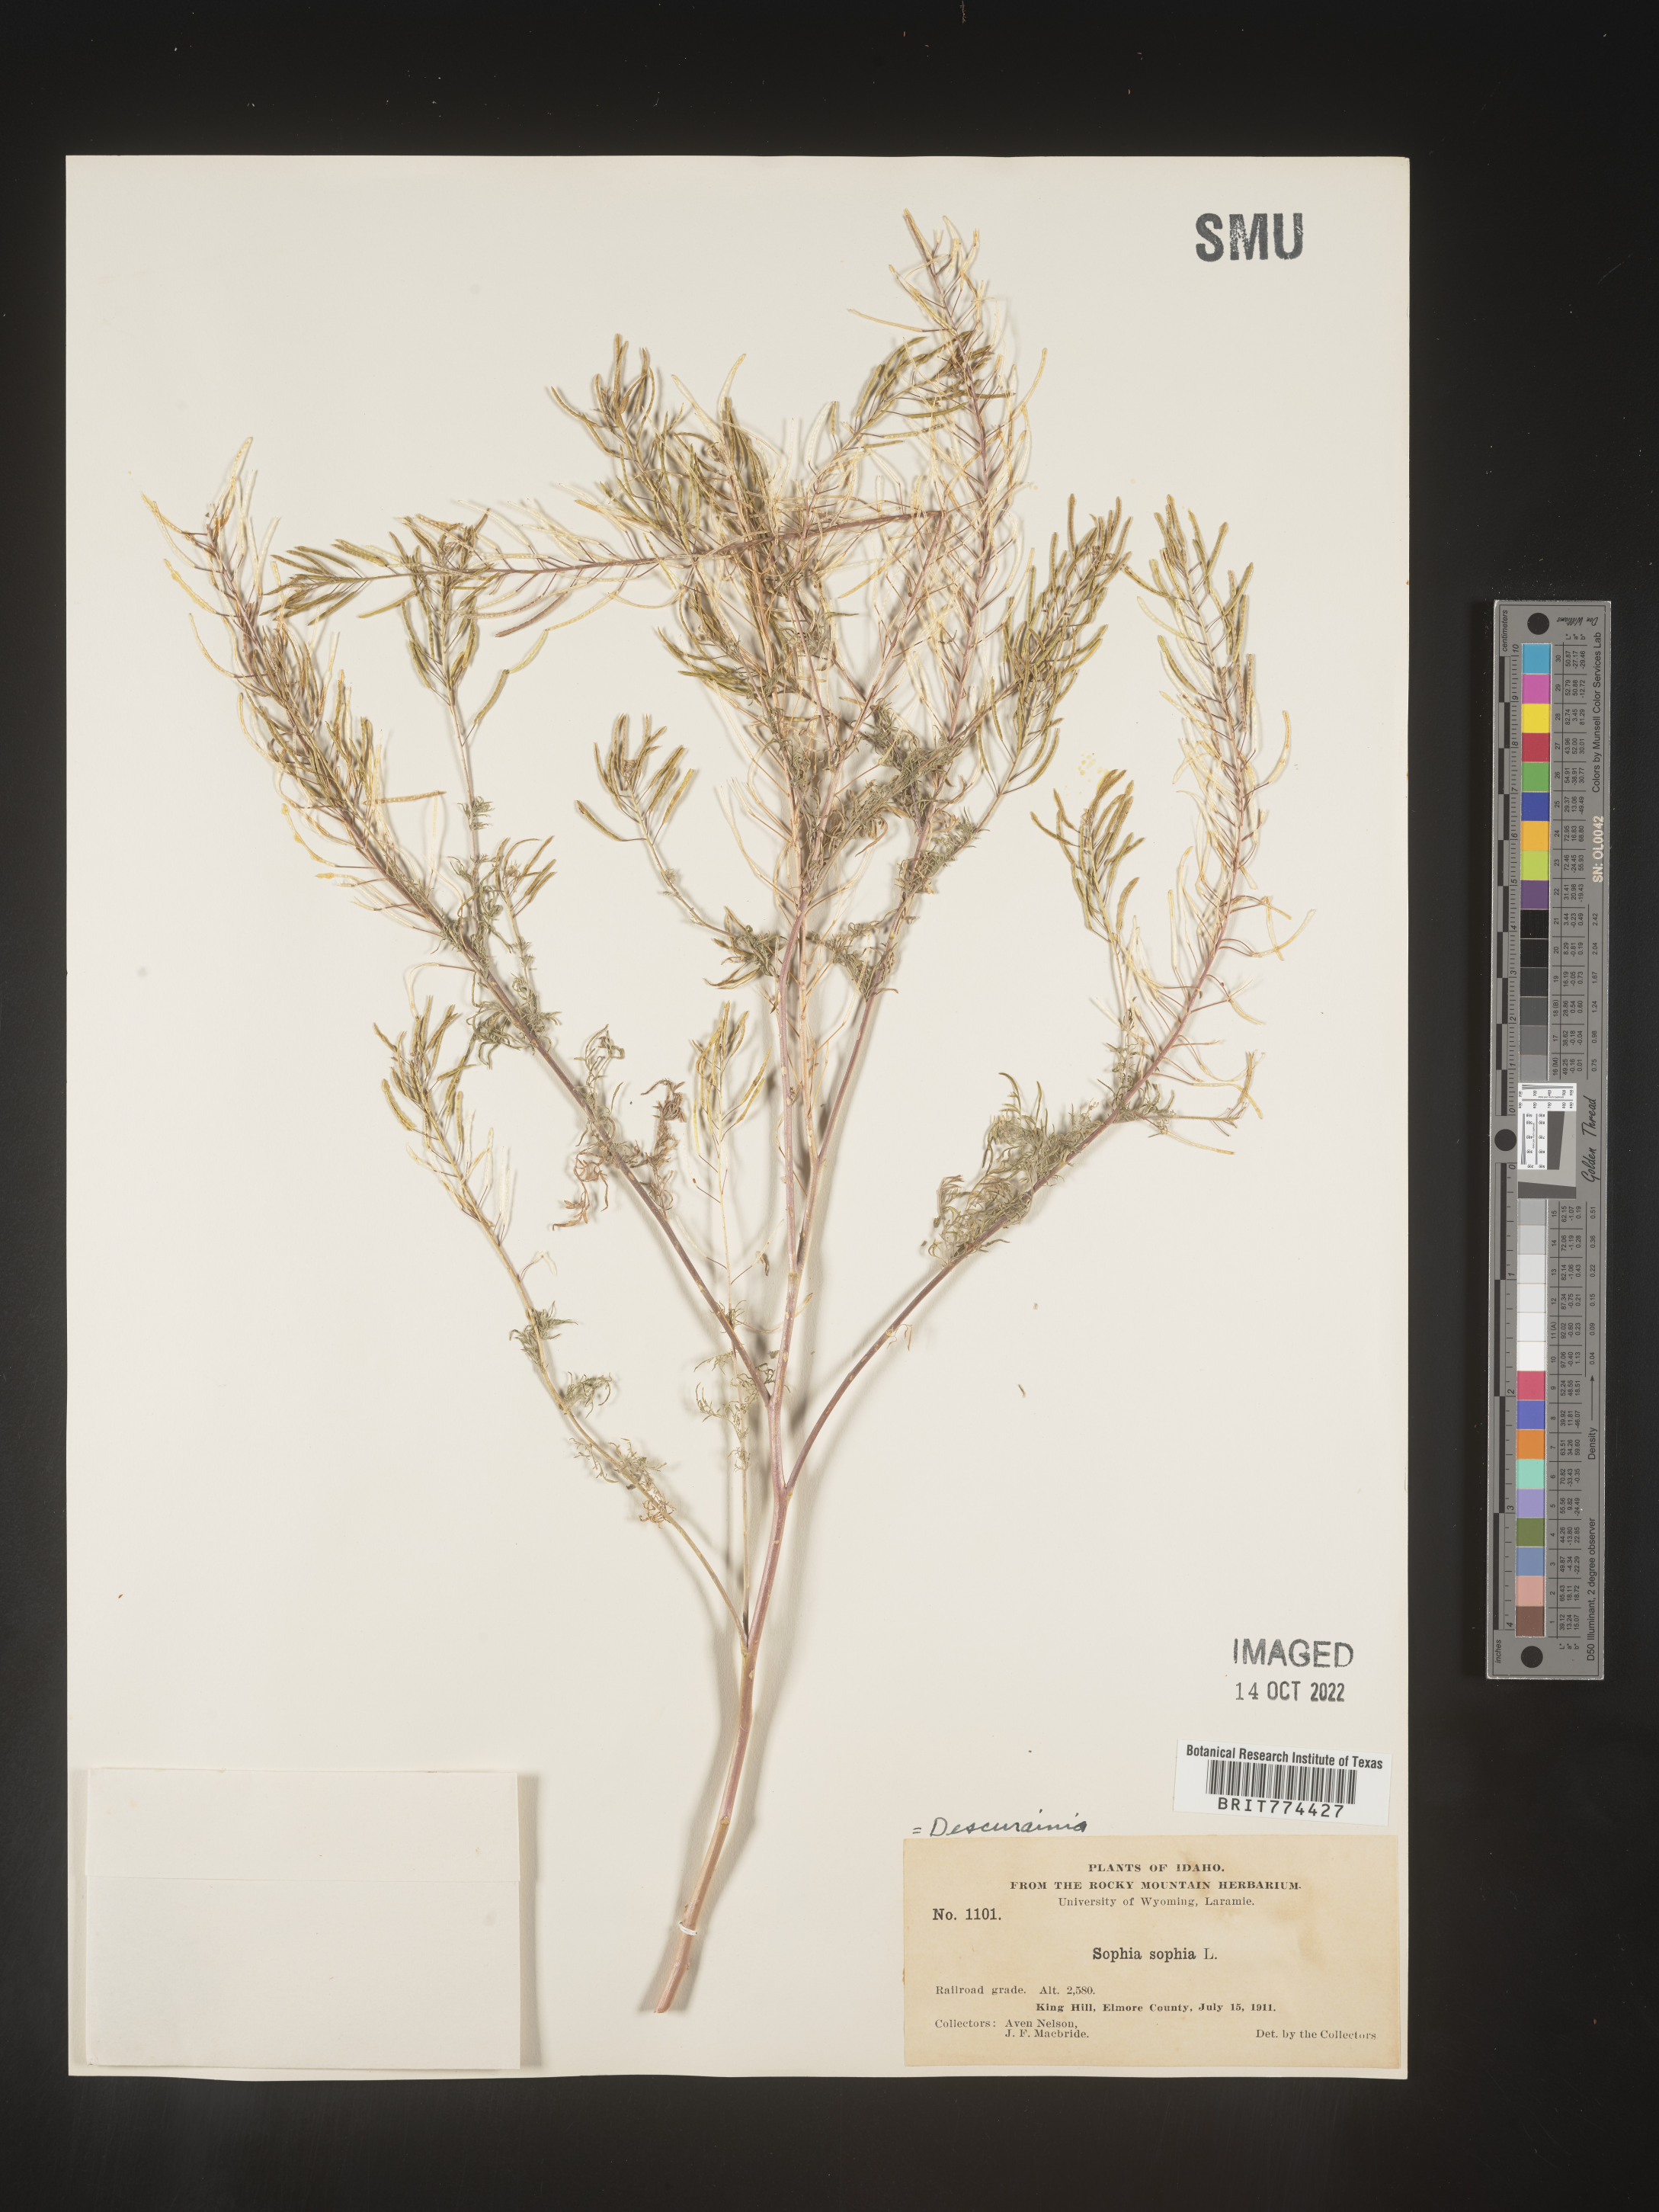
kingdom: Plantae
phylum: Tracheophyta
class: Magnoliopsida
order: Brassicales
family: Brassicaceae
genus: Descurainia
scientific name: Descurainia sophia
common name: Flixweed
